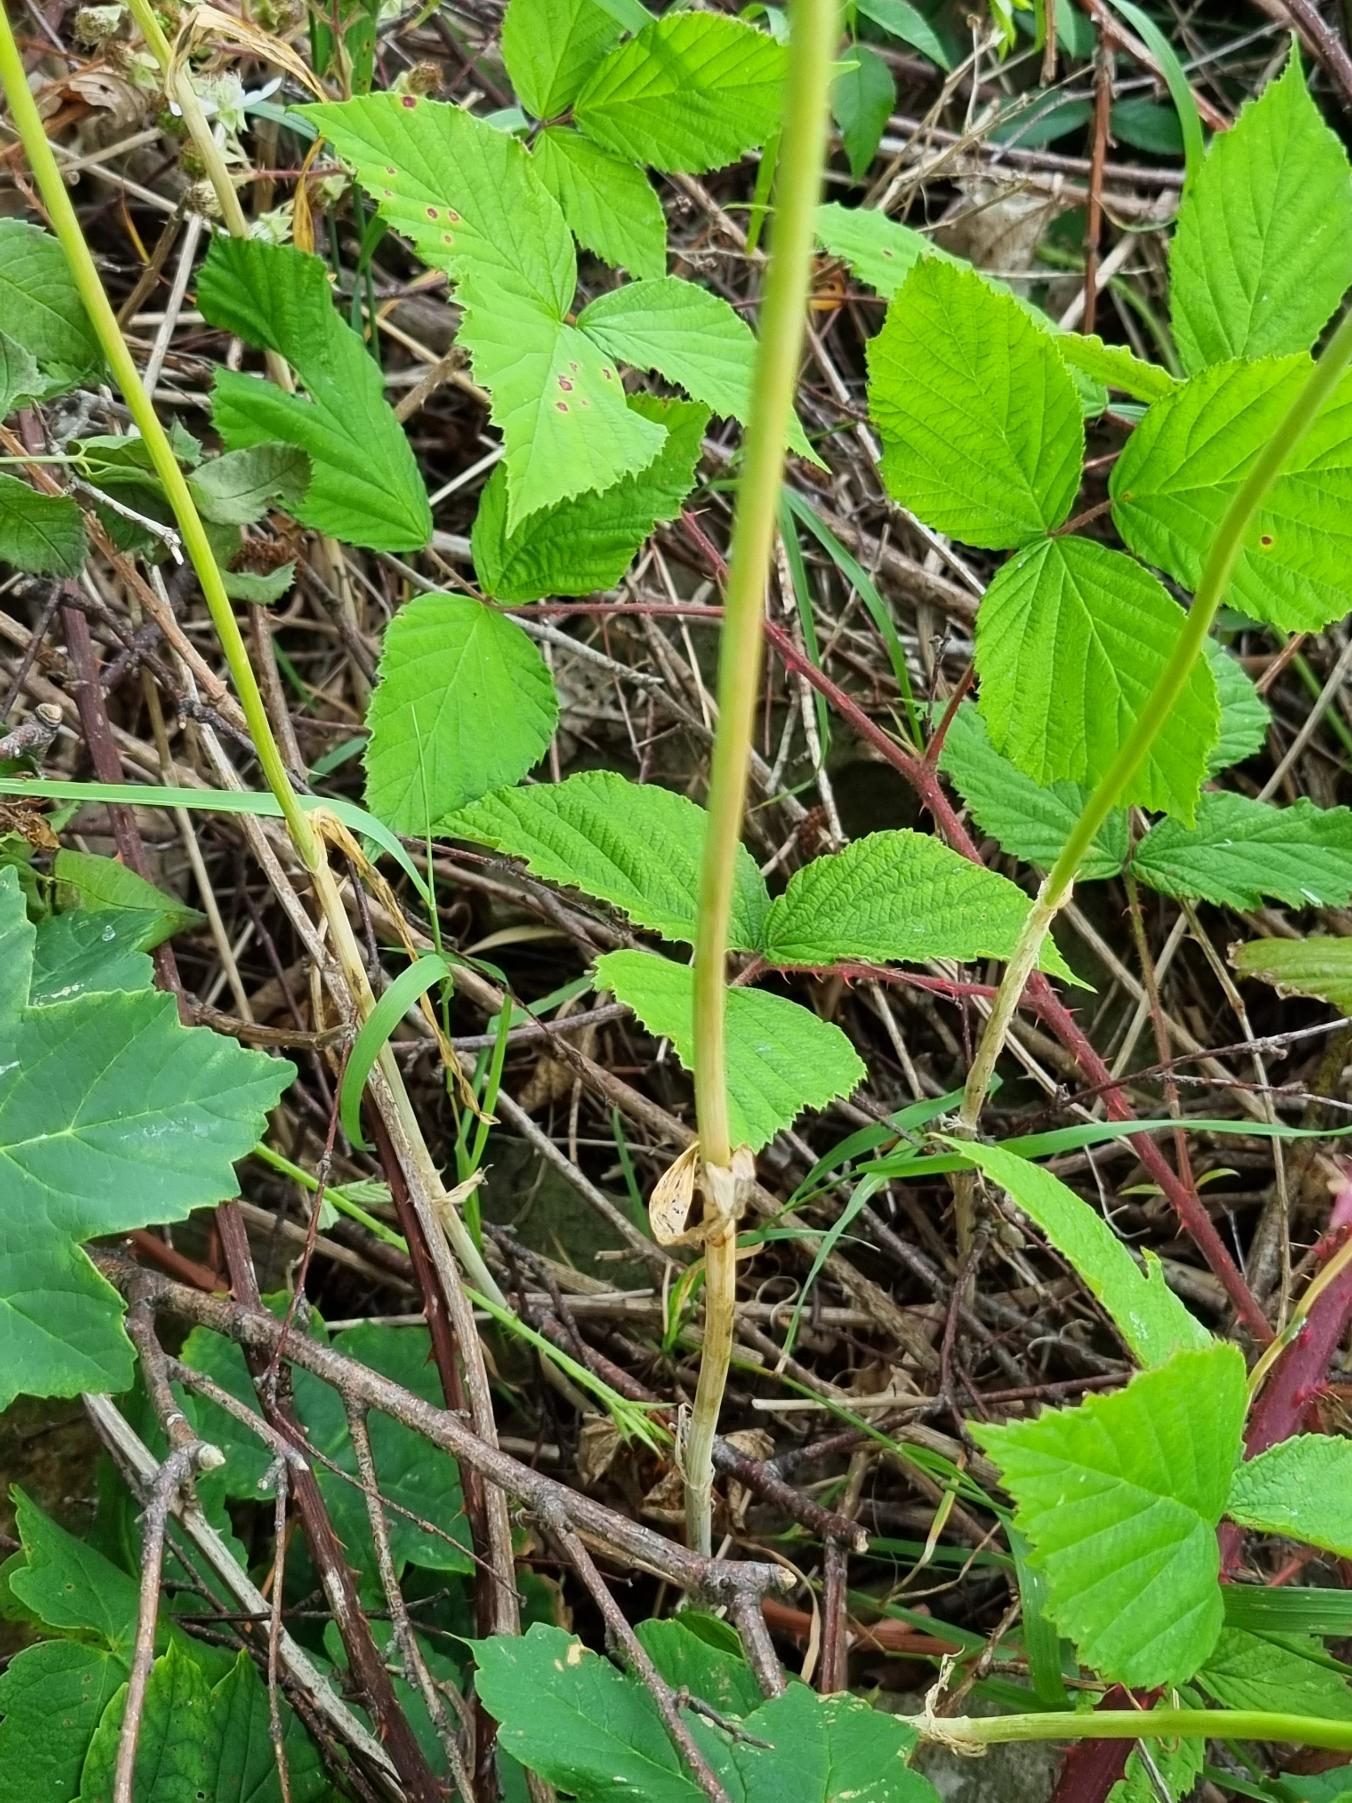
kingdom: Plantae
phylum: Tracheophyta
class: Liliopsida
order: Asparagales
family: Amaryllidaceae
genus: Allium
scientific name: Allium scorodoprasum
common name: Skov-løg
